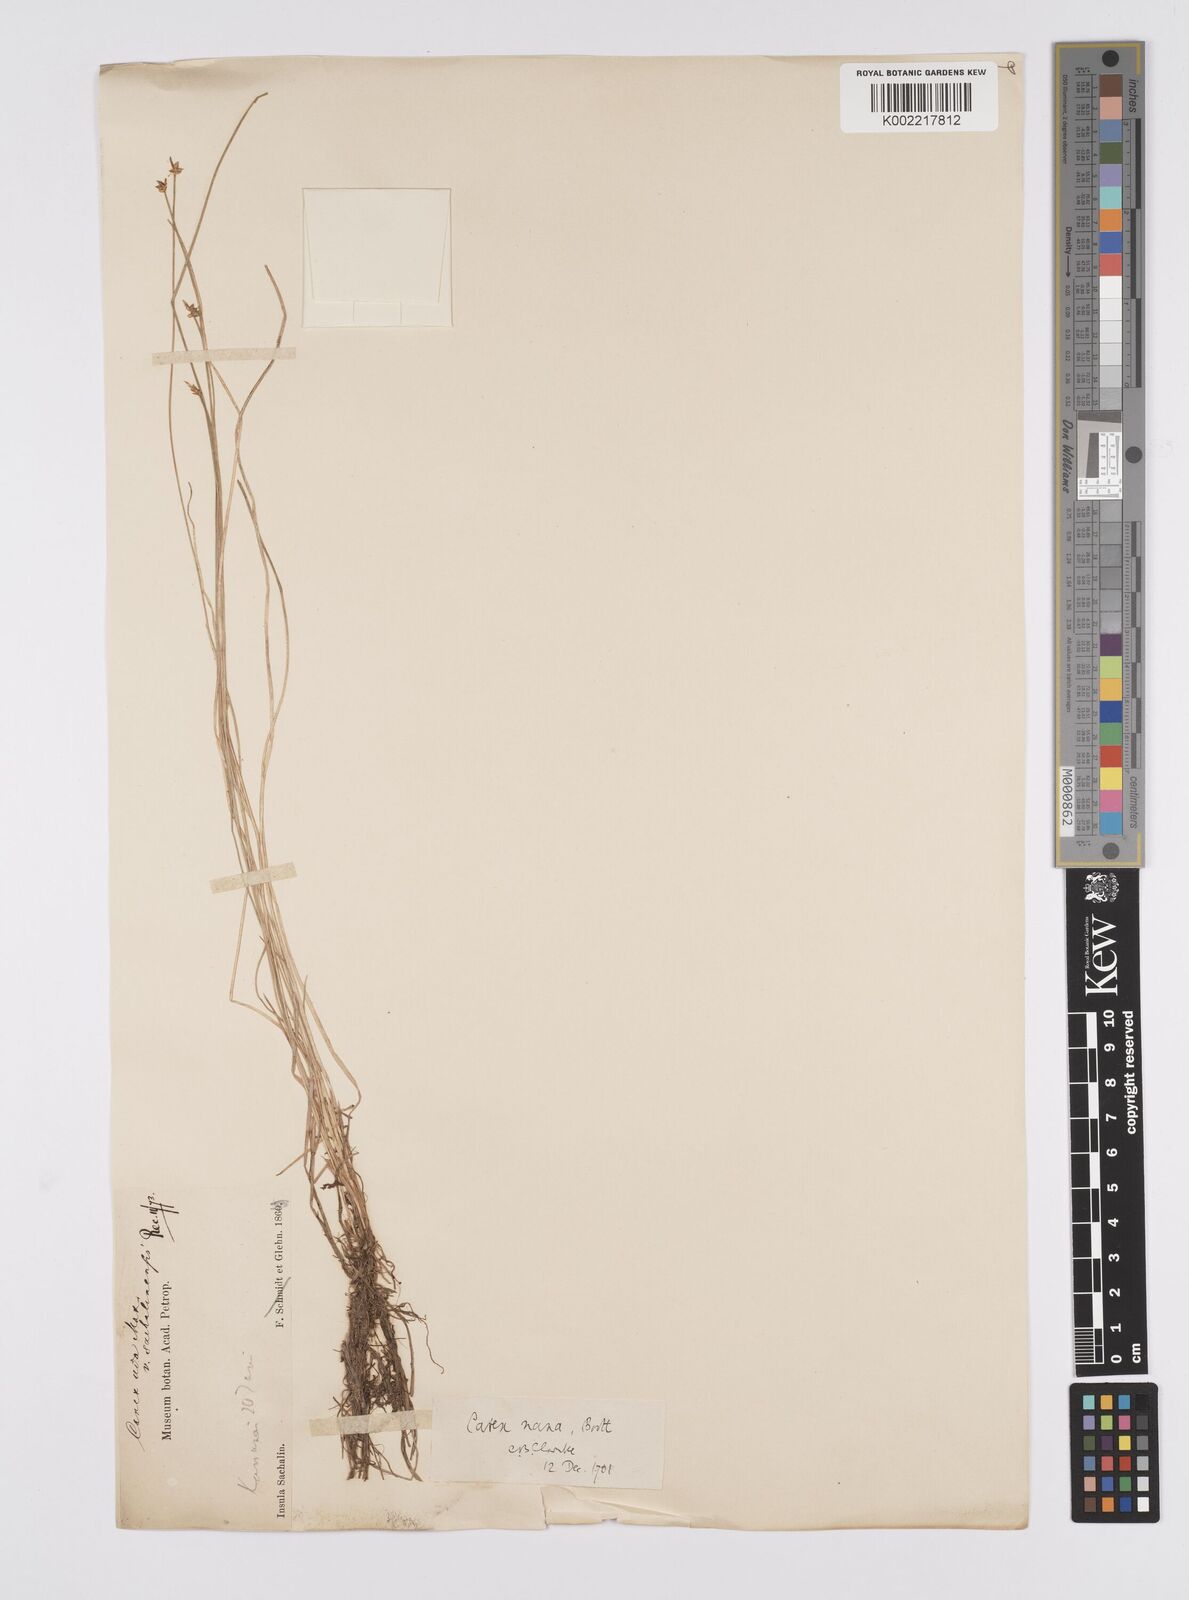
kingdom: Plantae
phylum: Tracheophyta
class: Liliopsida
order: Poales
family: Cyperaceae
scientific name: Cyperaceae
